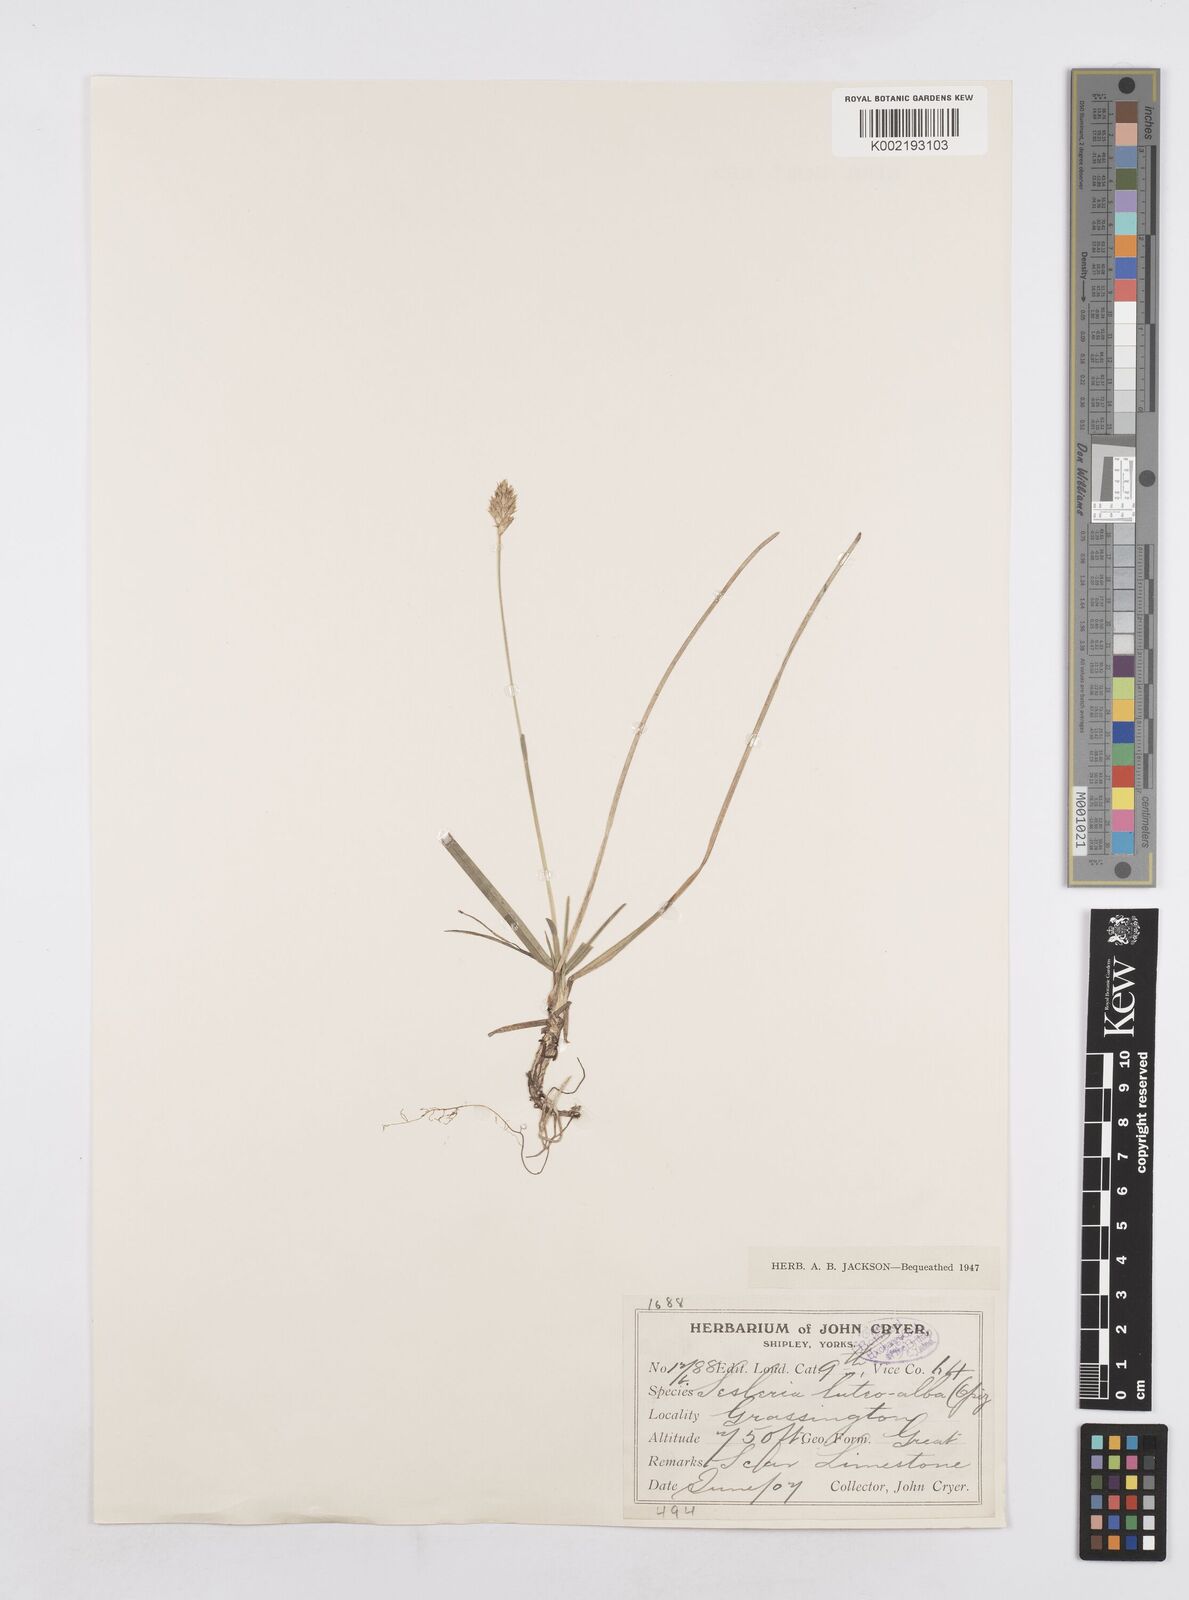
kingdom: Plantae
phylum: Tracheophyta
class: Liliopsida
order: Poales
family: Poaceae
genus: Sesleria
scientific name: Sesleria
